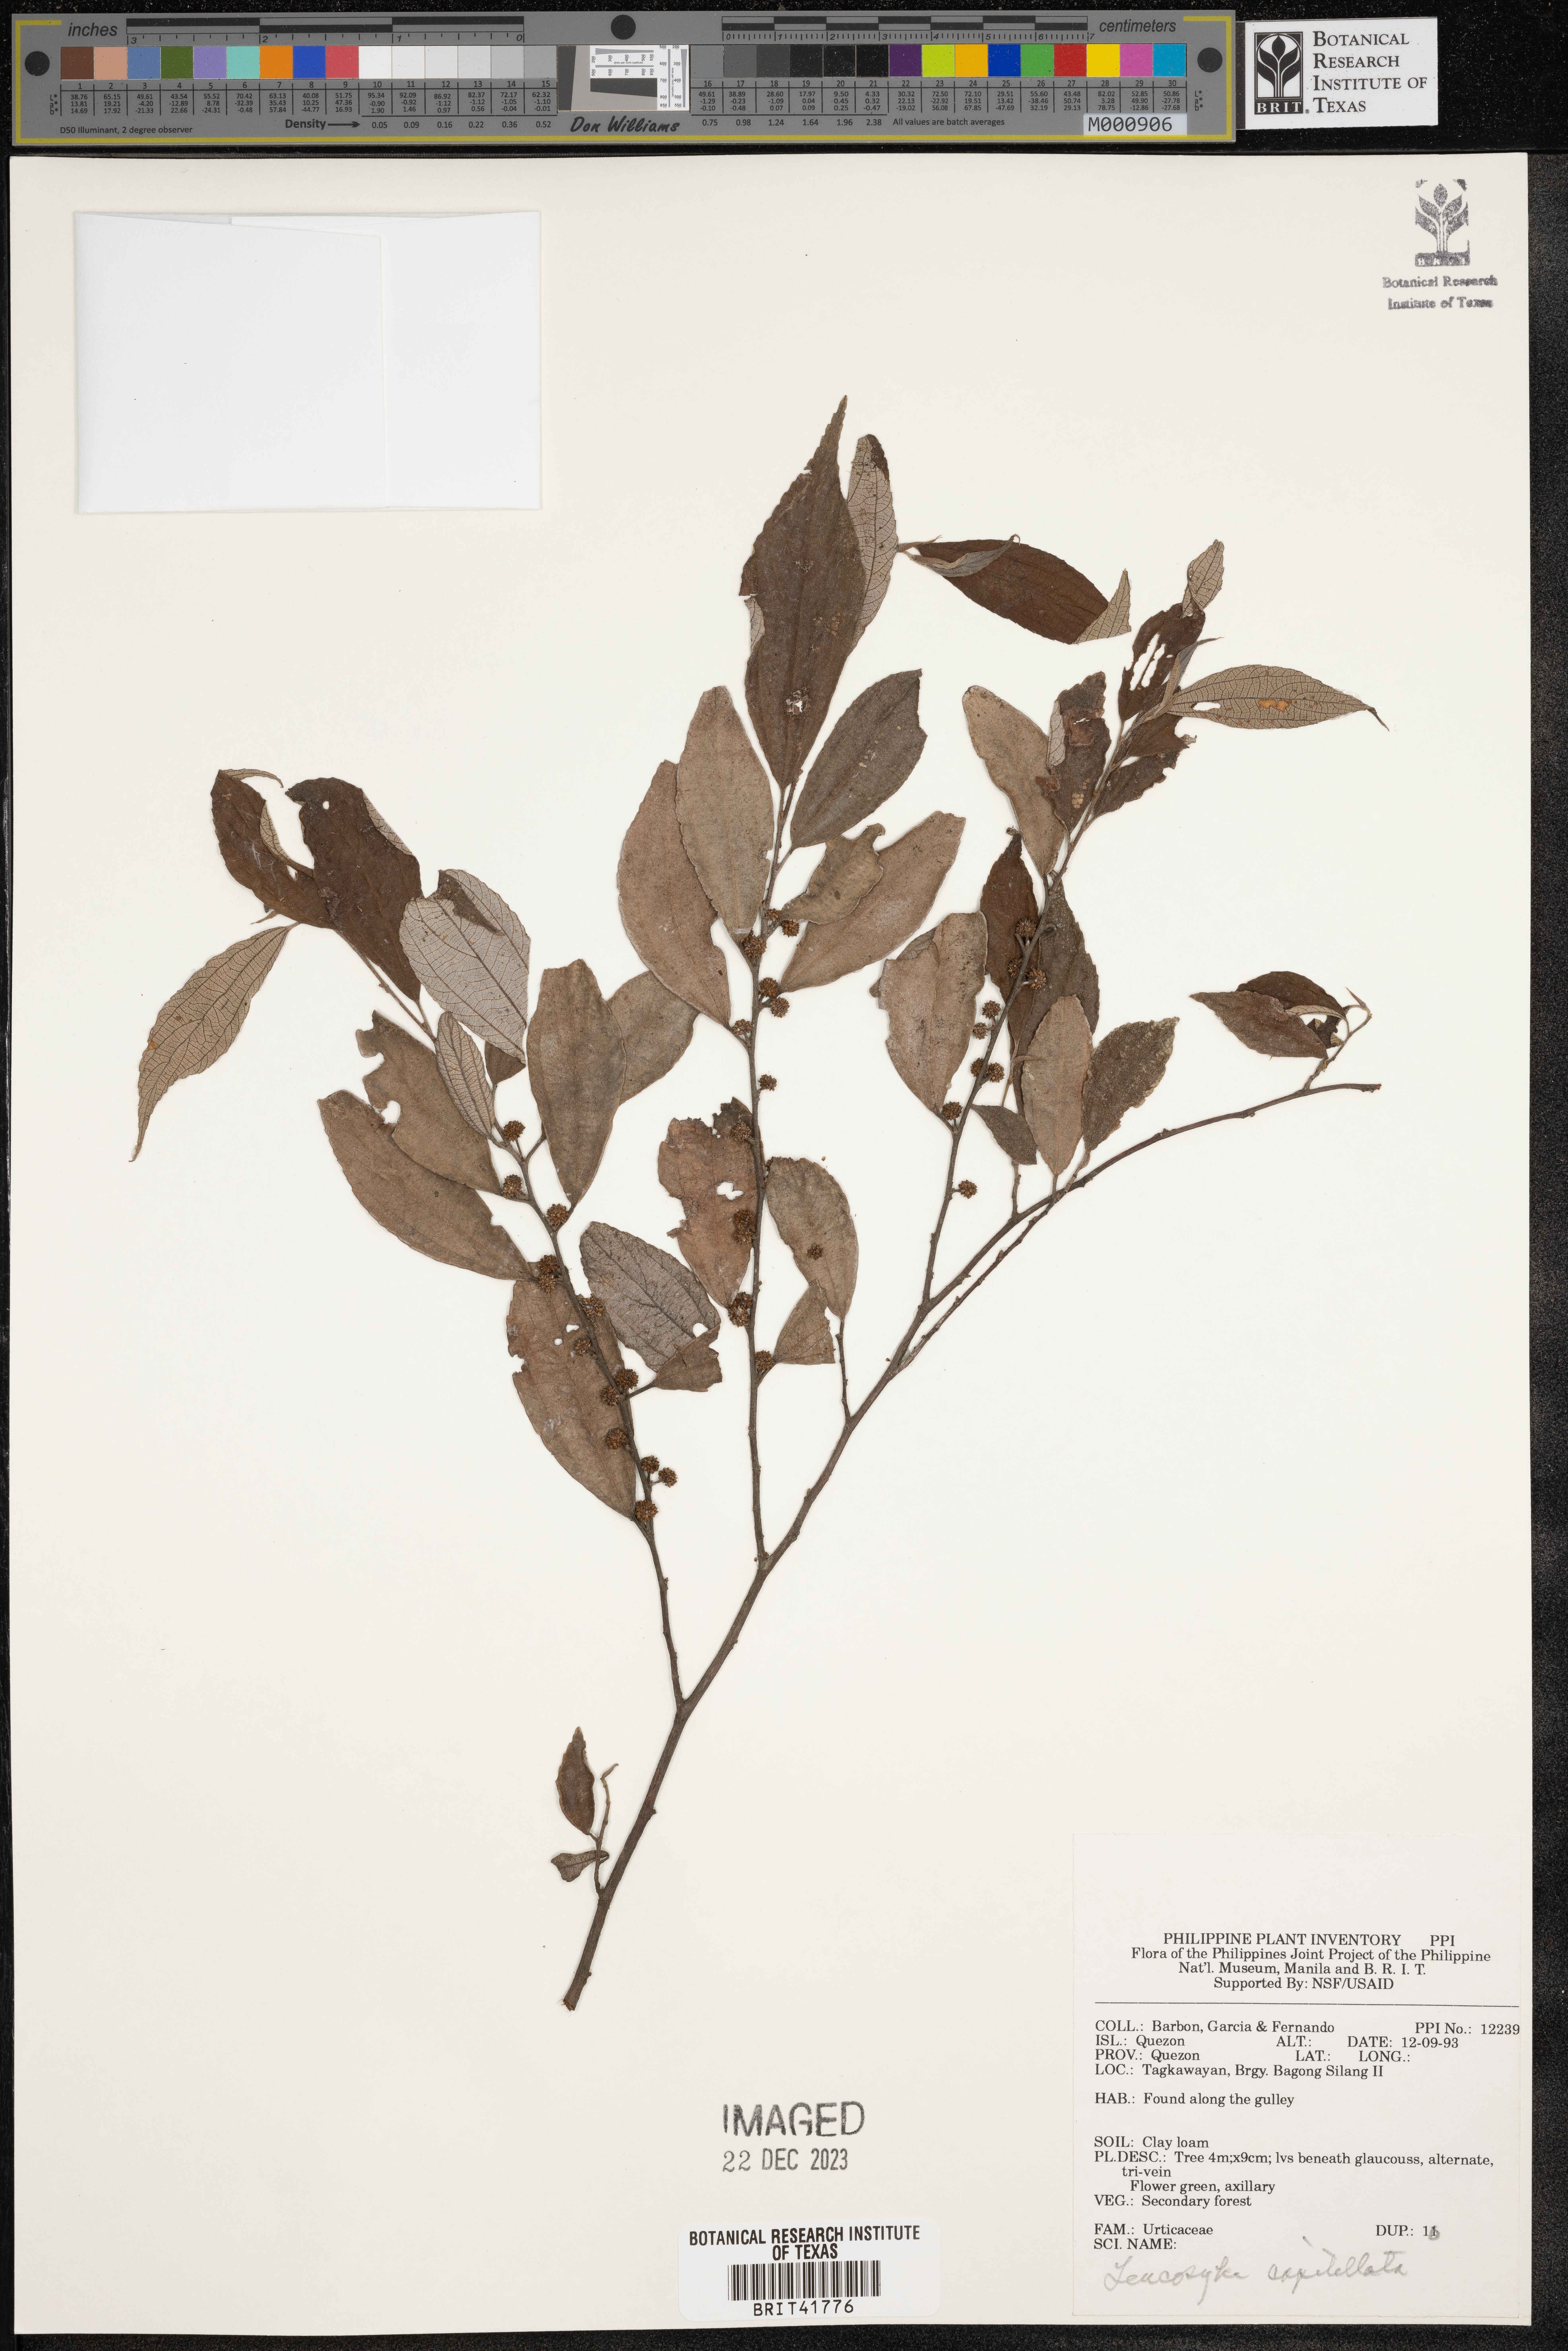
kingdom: Plantae
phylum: Tracheophyta
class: Magnoliopsida
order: Rosales
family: Urticaceae
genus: Leucosyke
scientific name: Leucosyke capitellata
